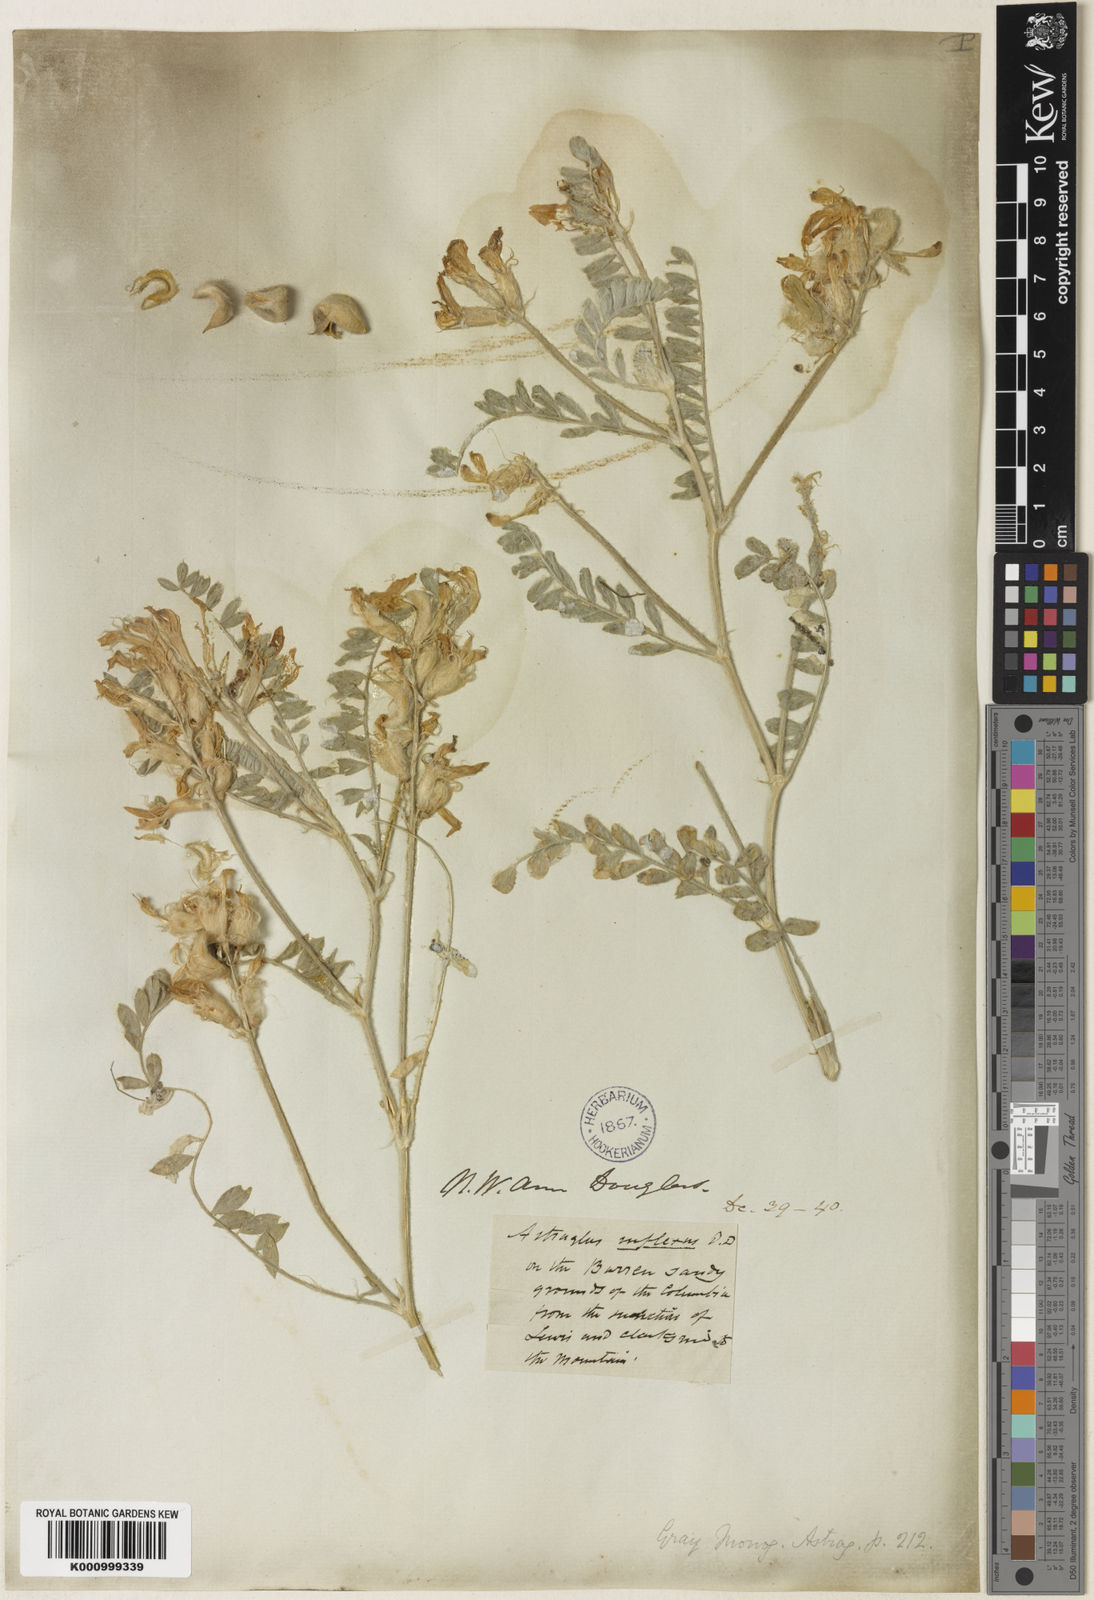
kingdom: Plantae
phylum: Tracheophyta
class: Magnoliopsida
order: Fabales
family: Fabaceae
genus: Astragalus
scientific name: Astragalus
